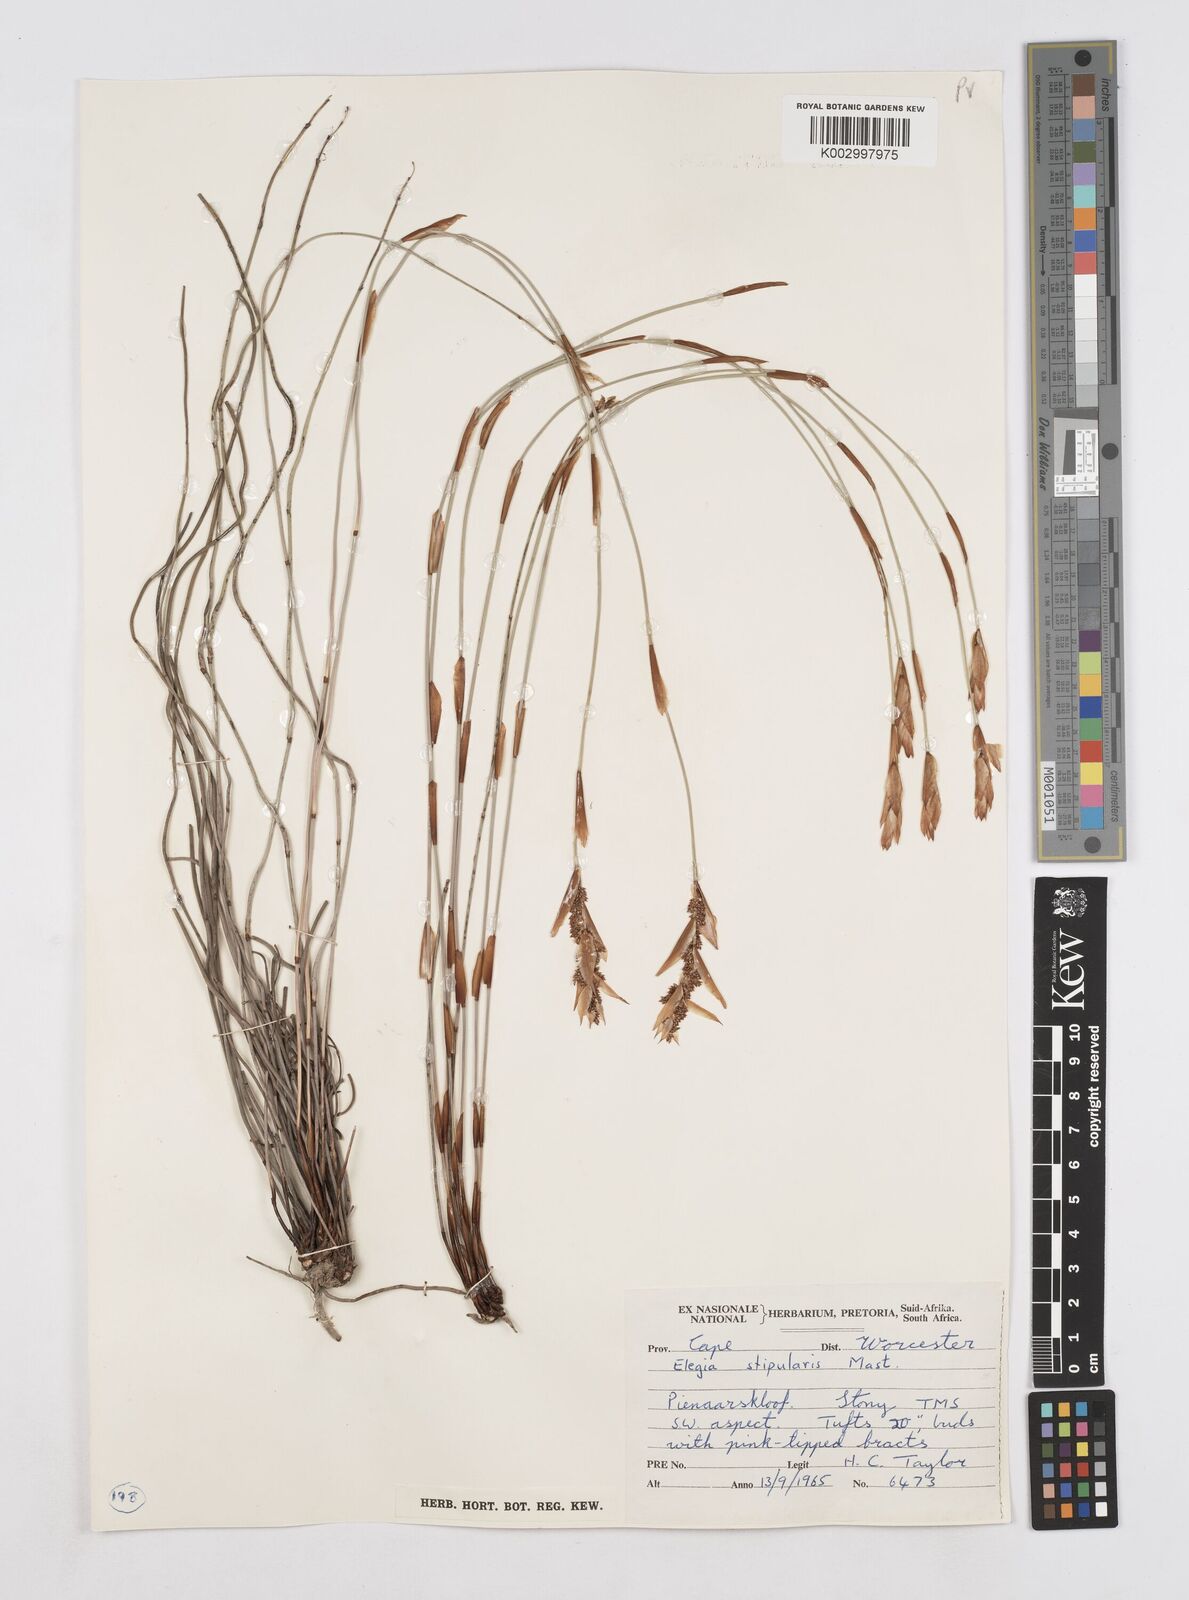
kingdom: Plantae
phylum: Tracheophyta
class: Liliopsida
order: Poales
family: Restionaceae
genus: Elegia
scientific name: Elegia stipularis
